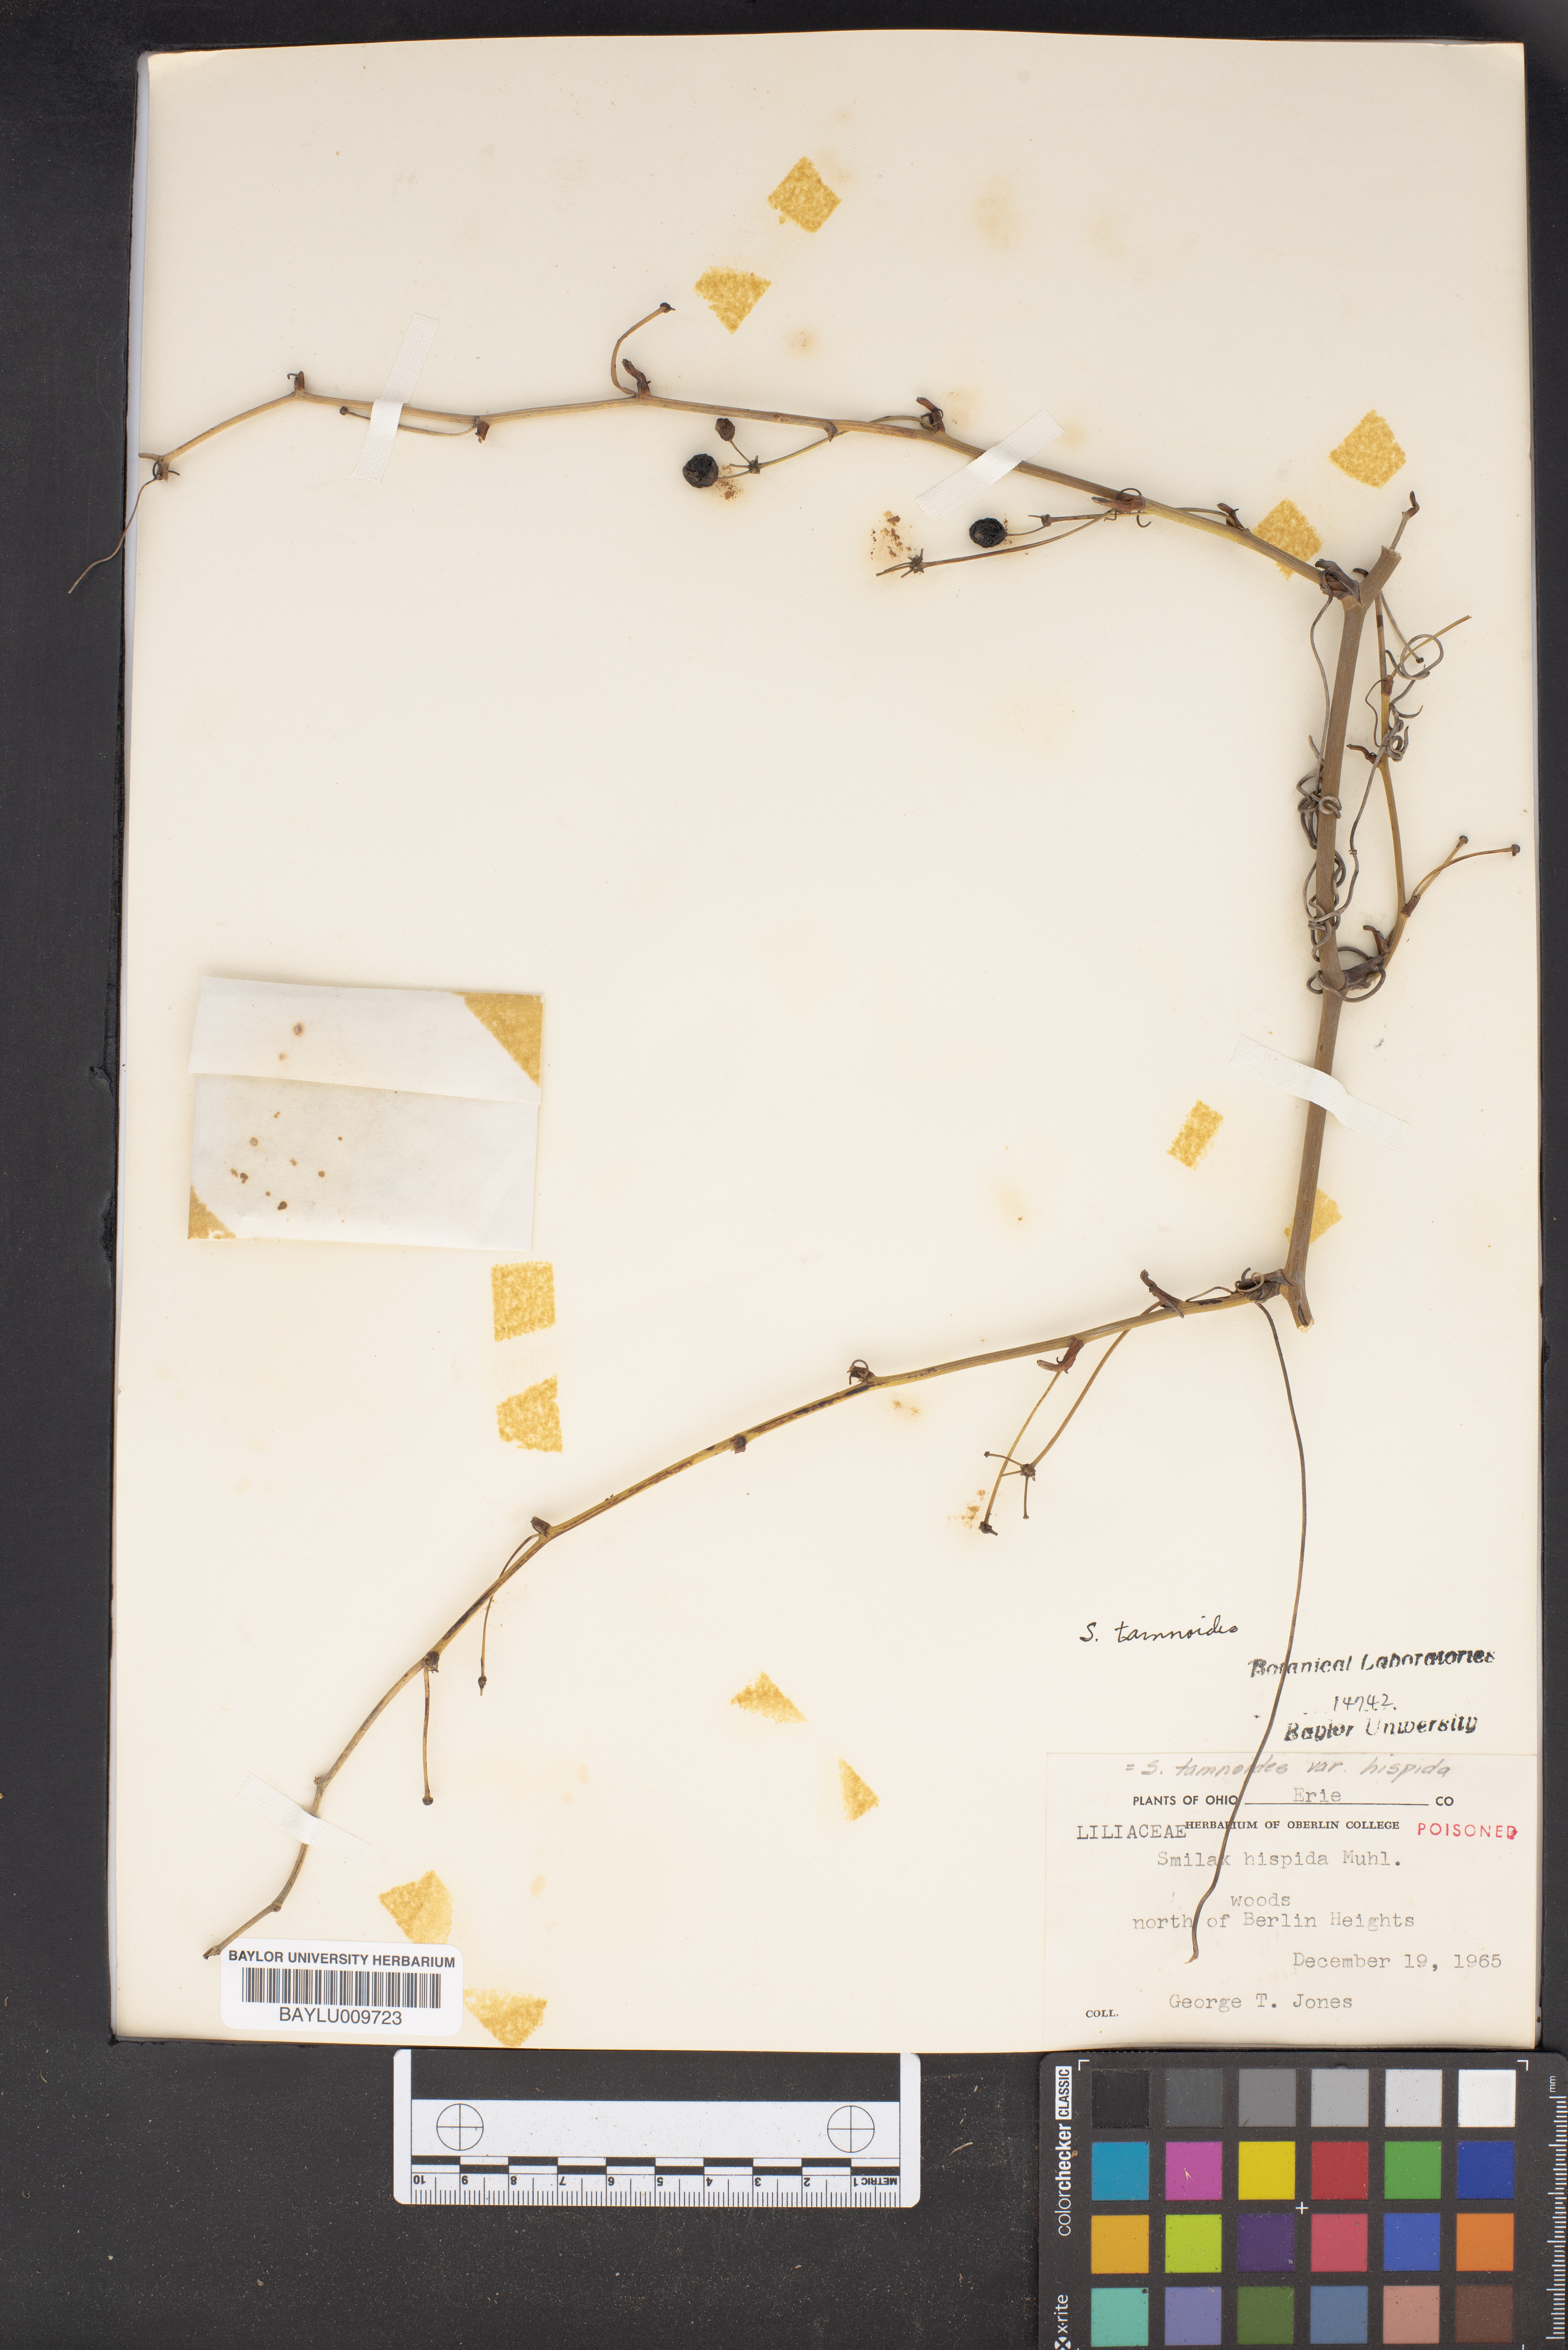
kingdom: Plantae
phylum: Tracheophyta
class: Liliopsida
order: Liliales
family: Smilacaceae
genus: Smilax
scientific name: Smilax tamnoides
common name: Hellfetter
